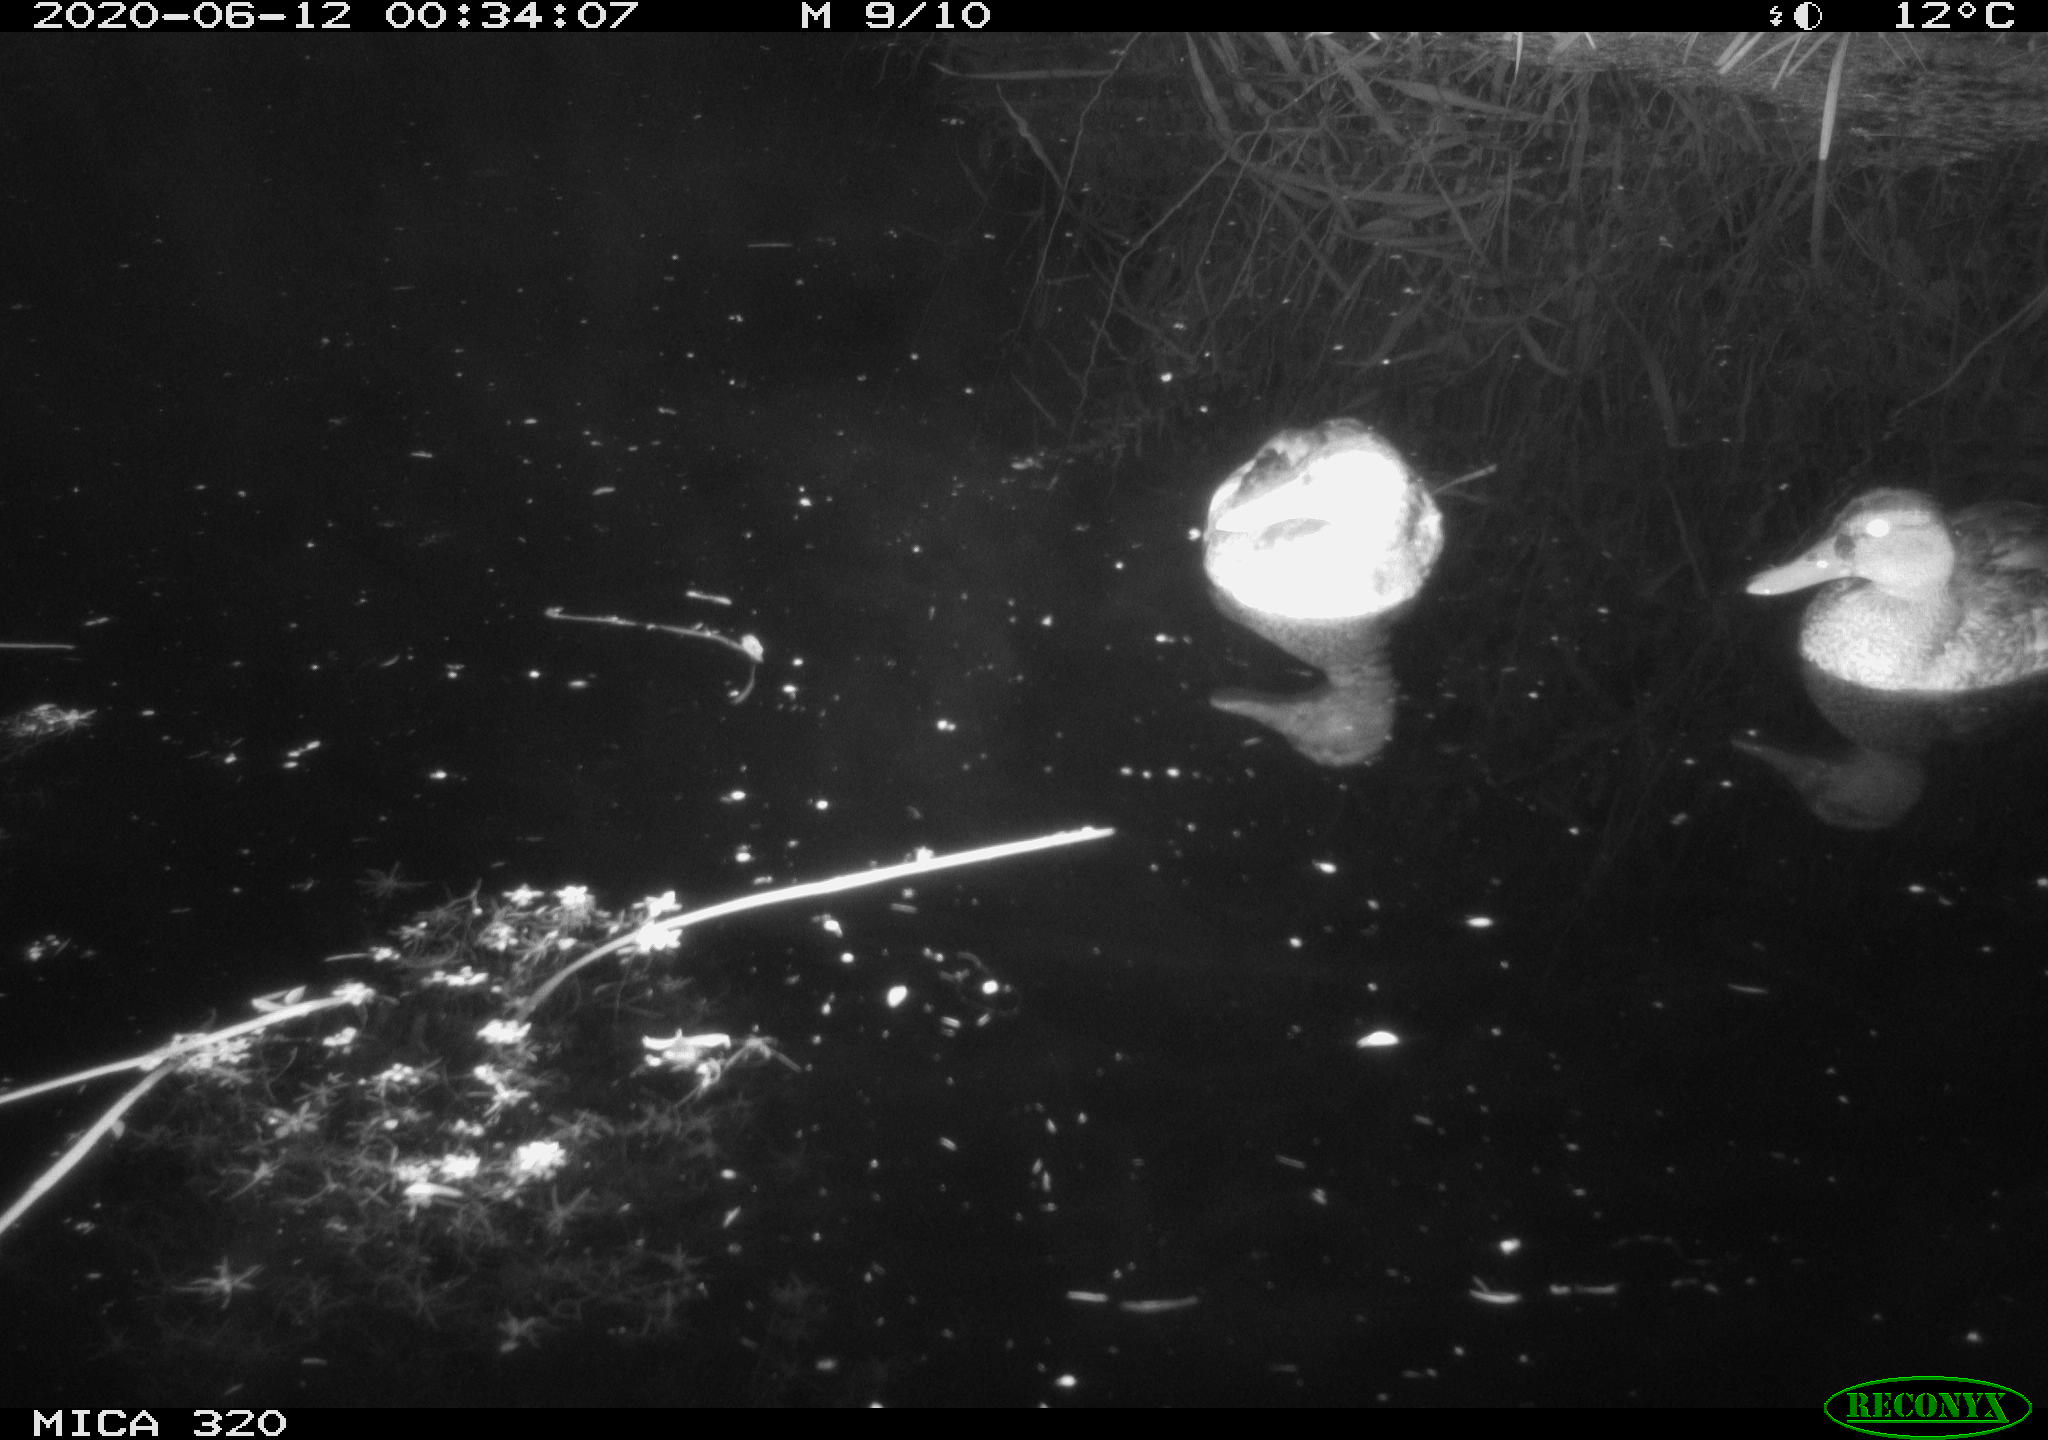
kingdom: Animalia
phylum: Chordata
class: Aves
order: Anseriformes
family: Anatidae
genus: Anas
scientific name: Anas platyrhynchos
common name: Mallard
